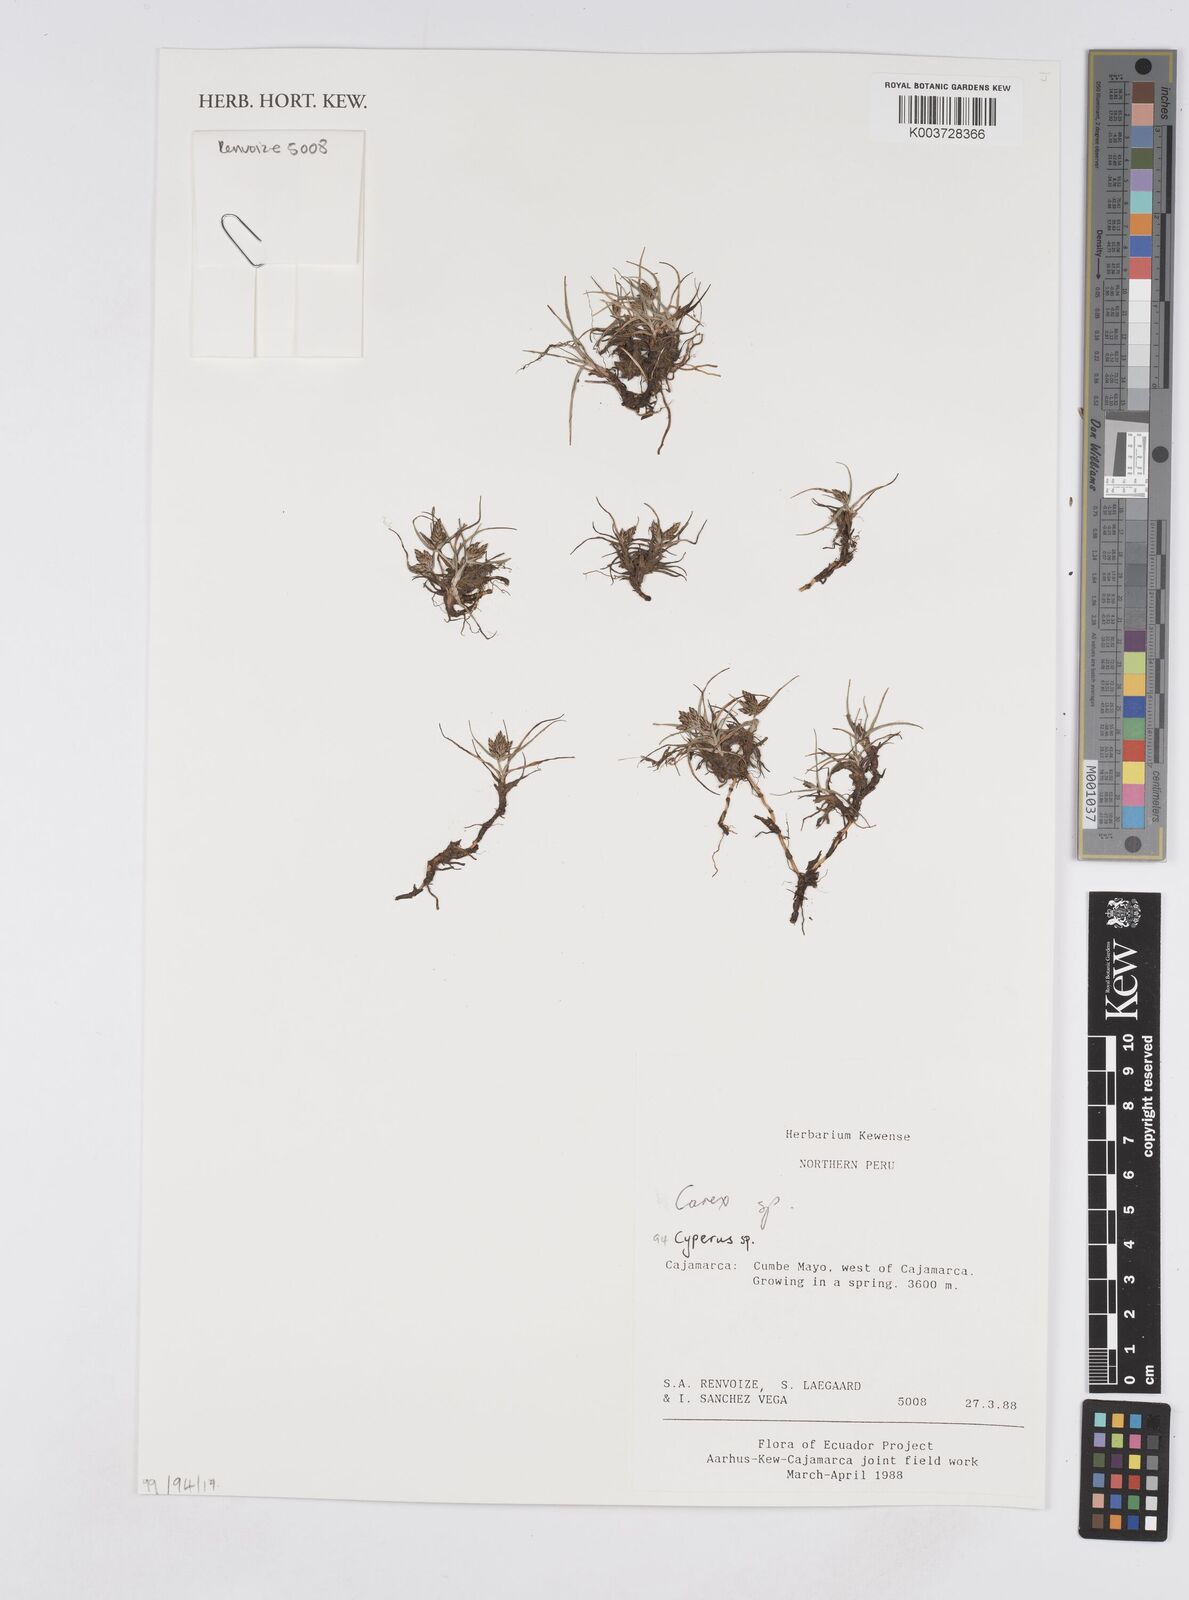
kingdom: Plantae
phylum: Tracheophyta
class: Liliopsida
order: Poales
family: Cyperaceae
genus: Cyperus
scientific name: Cyperus
